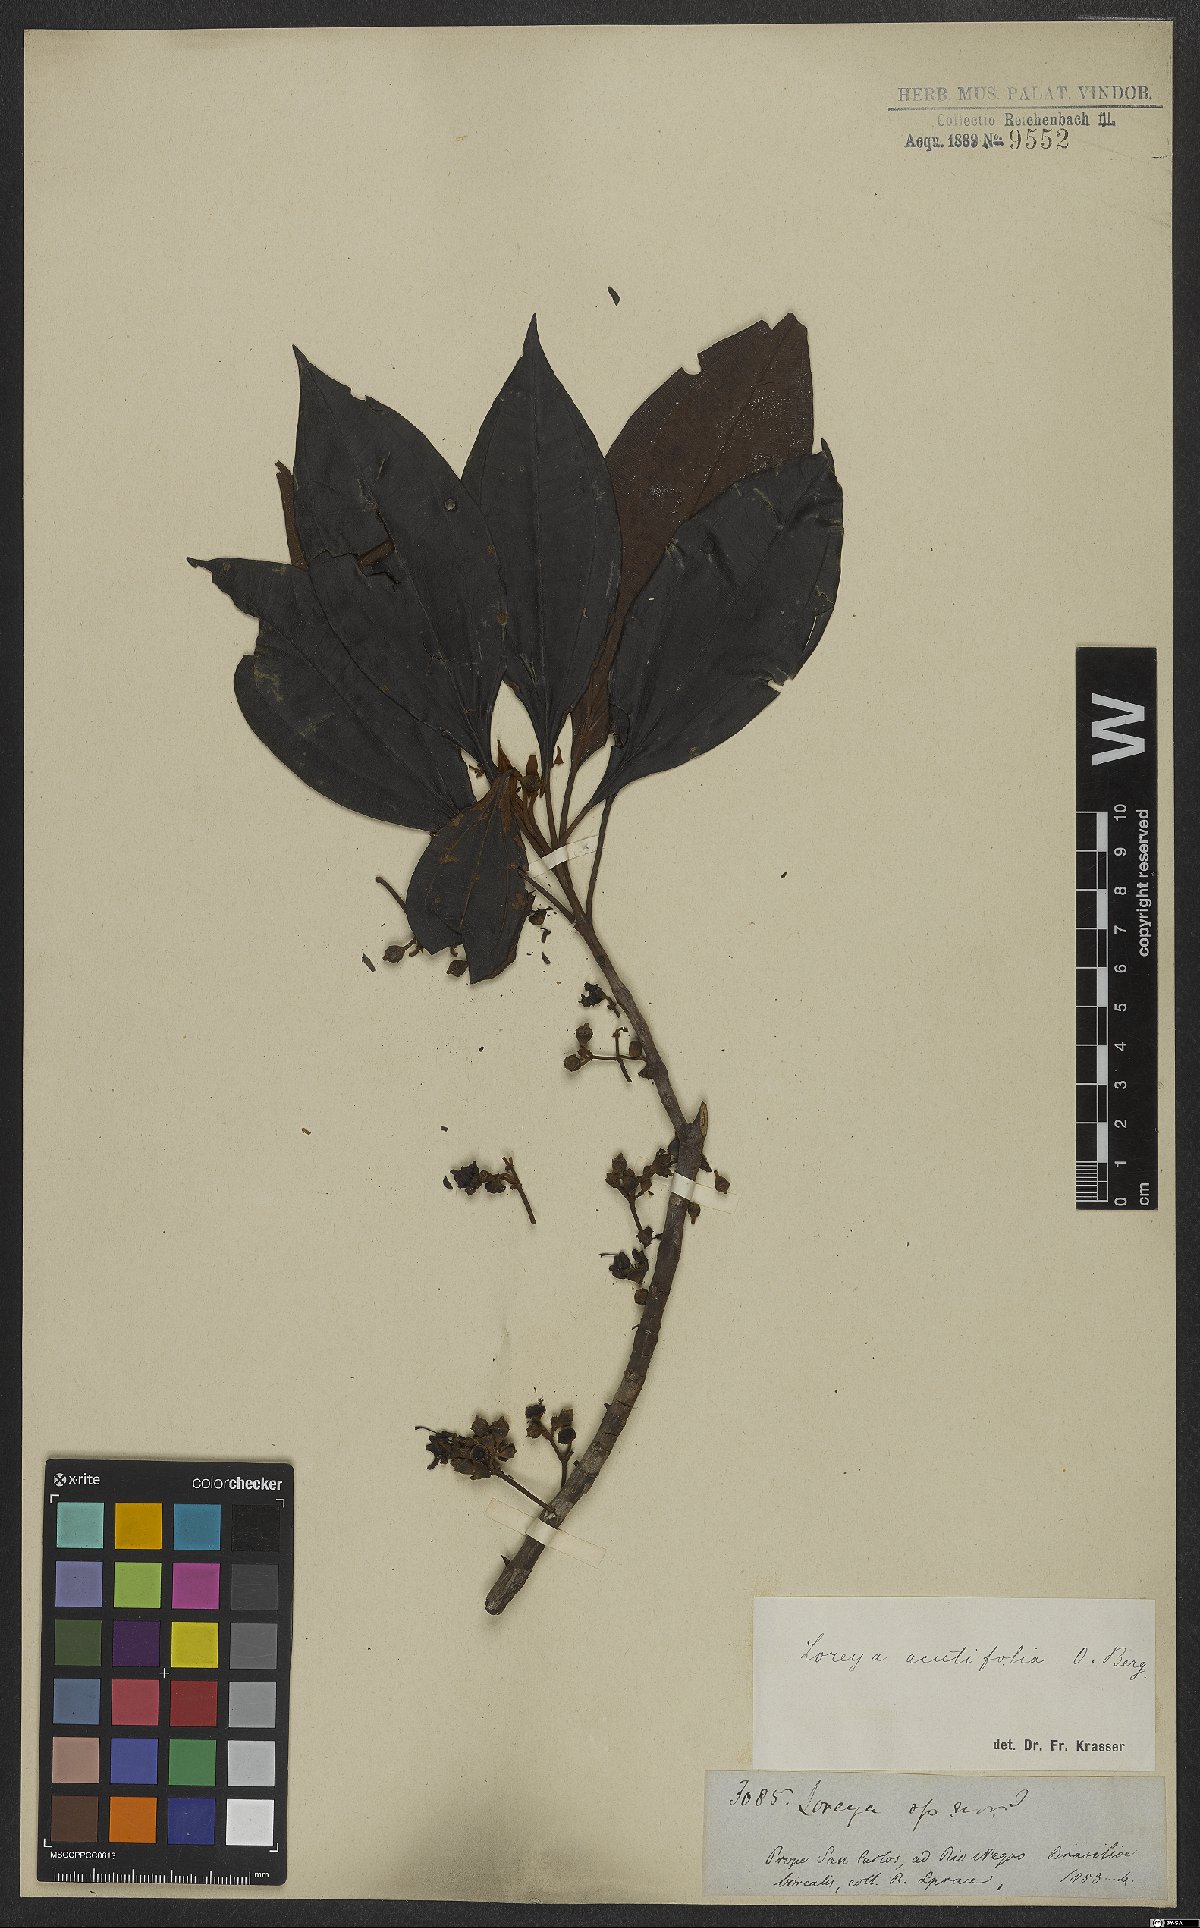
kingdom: Plantae
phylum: Tracheophyta
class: Magnoliopsida
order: Myrtales
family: Melastomataceae
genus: Bellucia
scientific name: Bellucia arborescens
